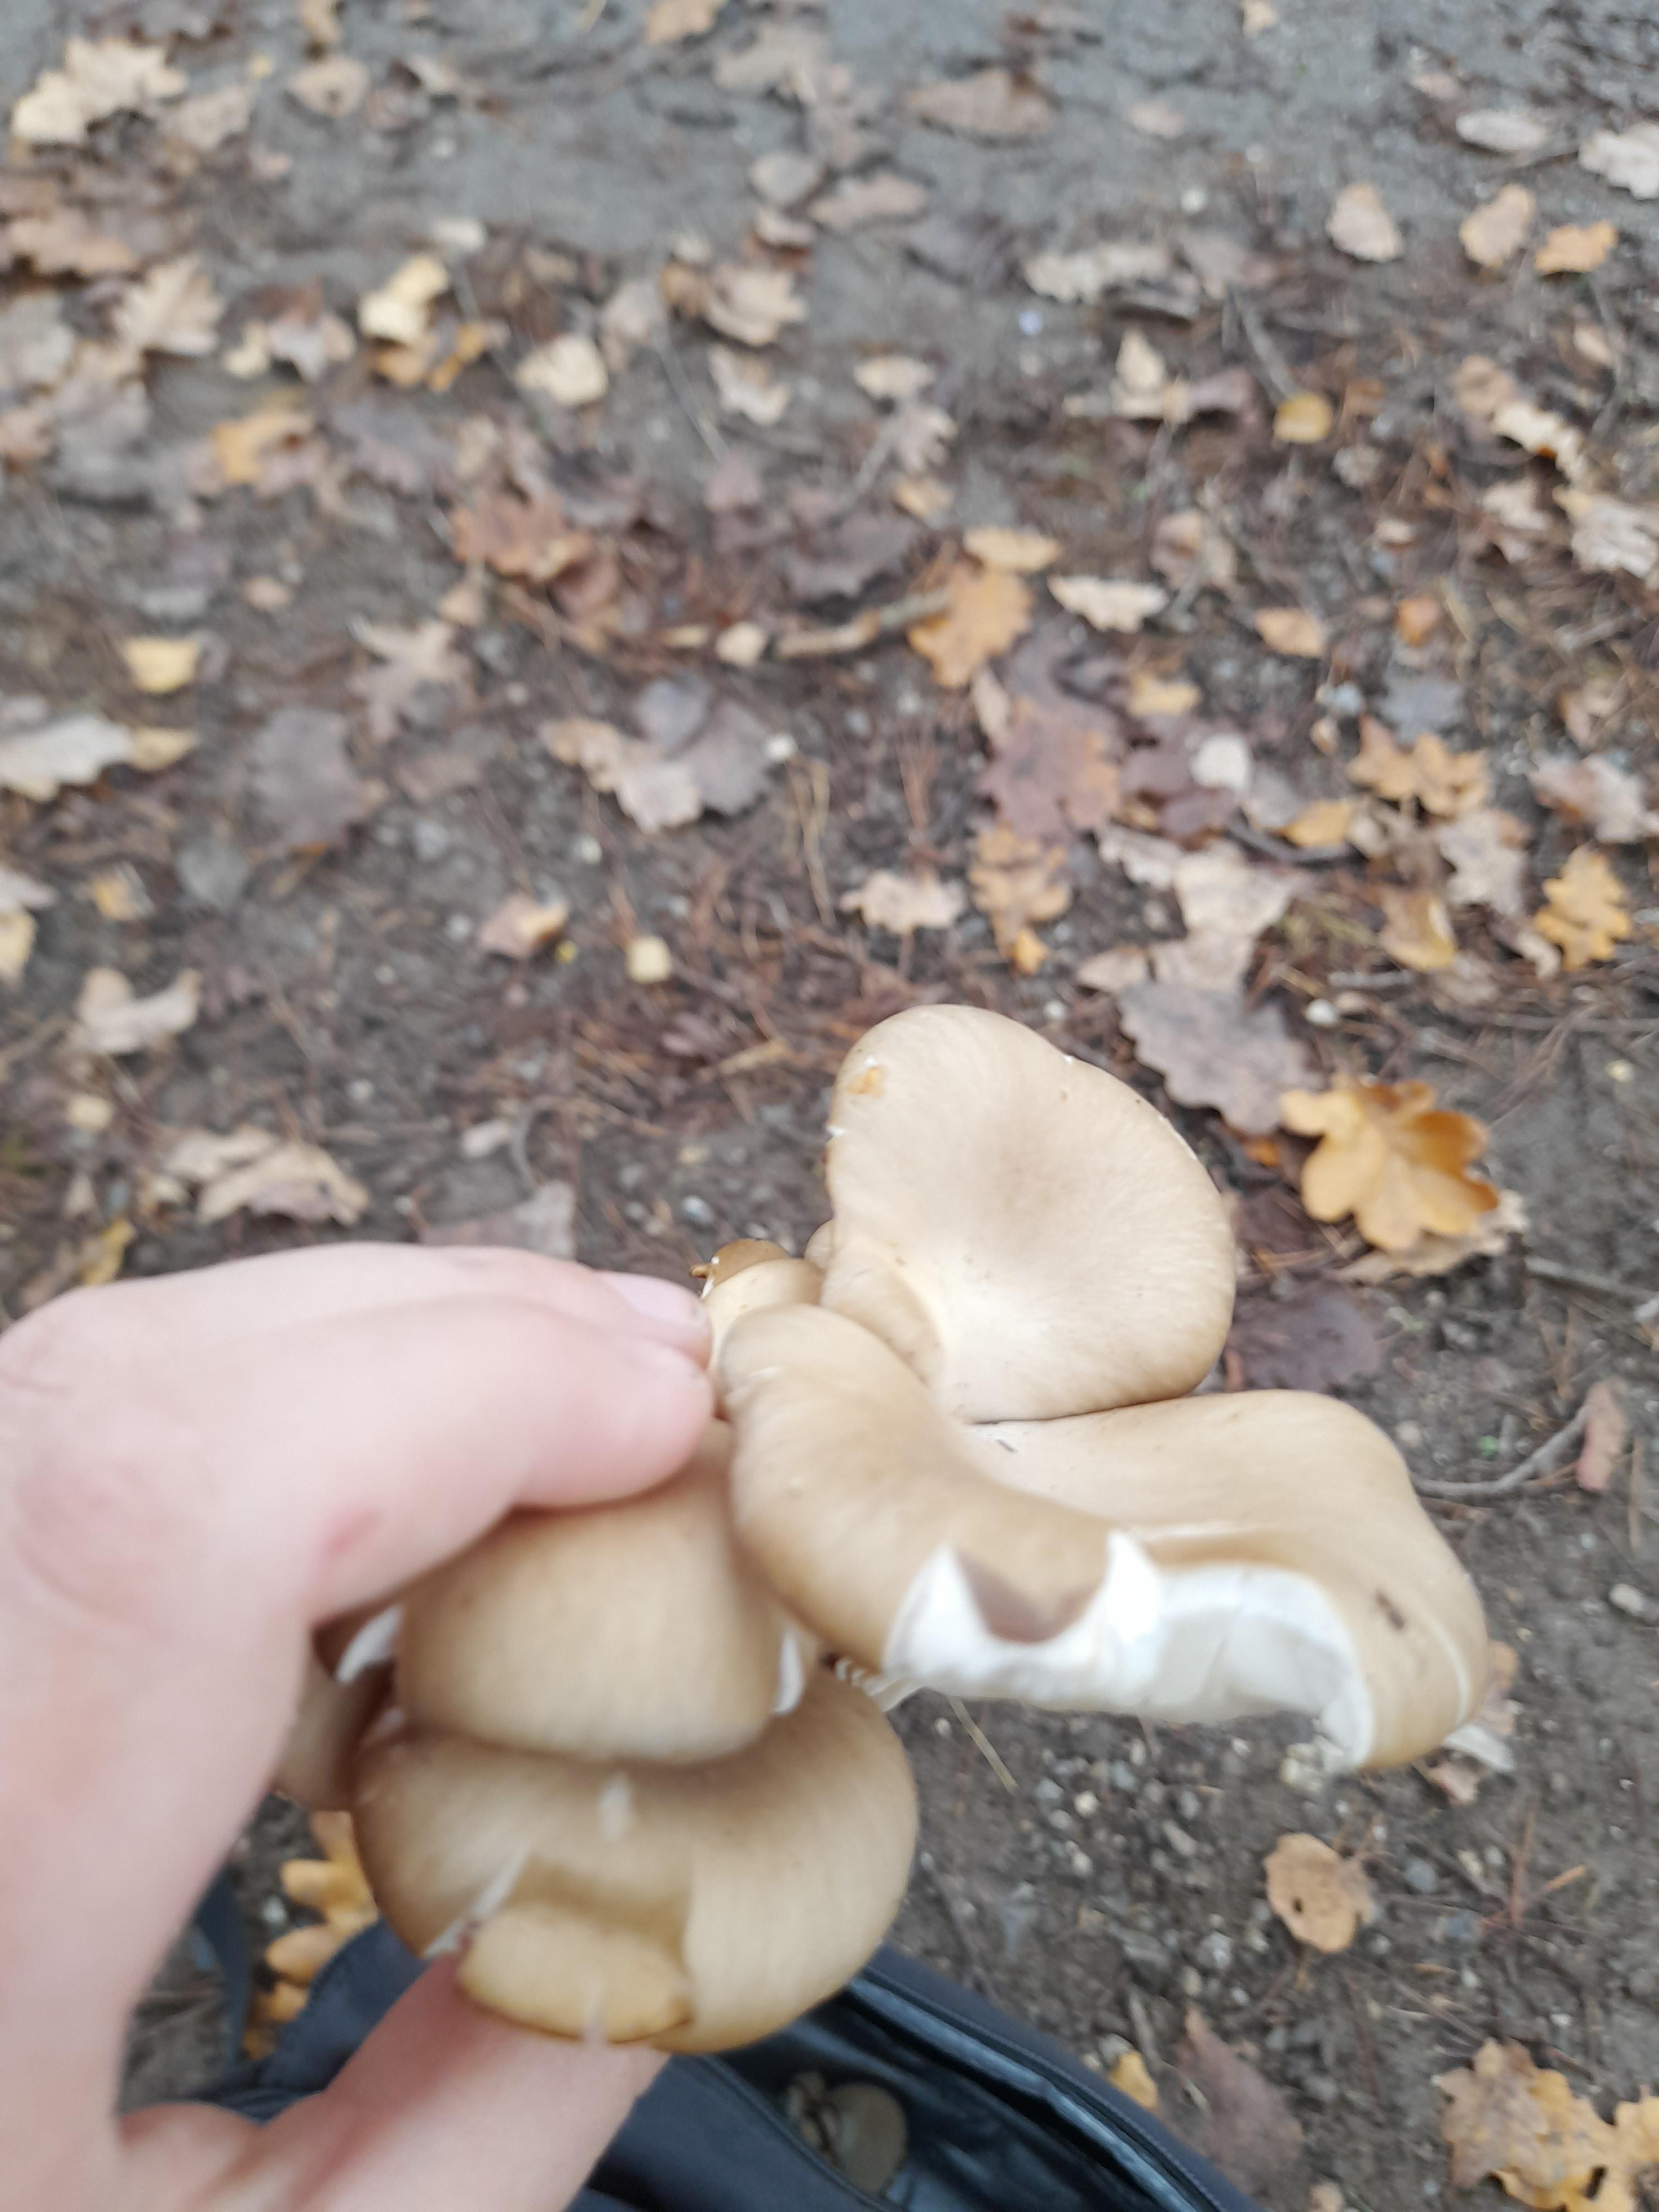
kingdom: Fungi
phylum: Basidiomycota
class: Agaricomycetes
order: Agaricales
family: Pleurotaceae
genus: Pleurotus
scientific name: Pleurotus ostreatus
